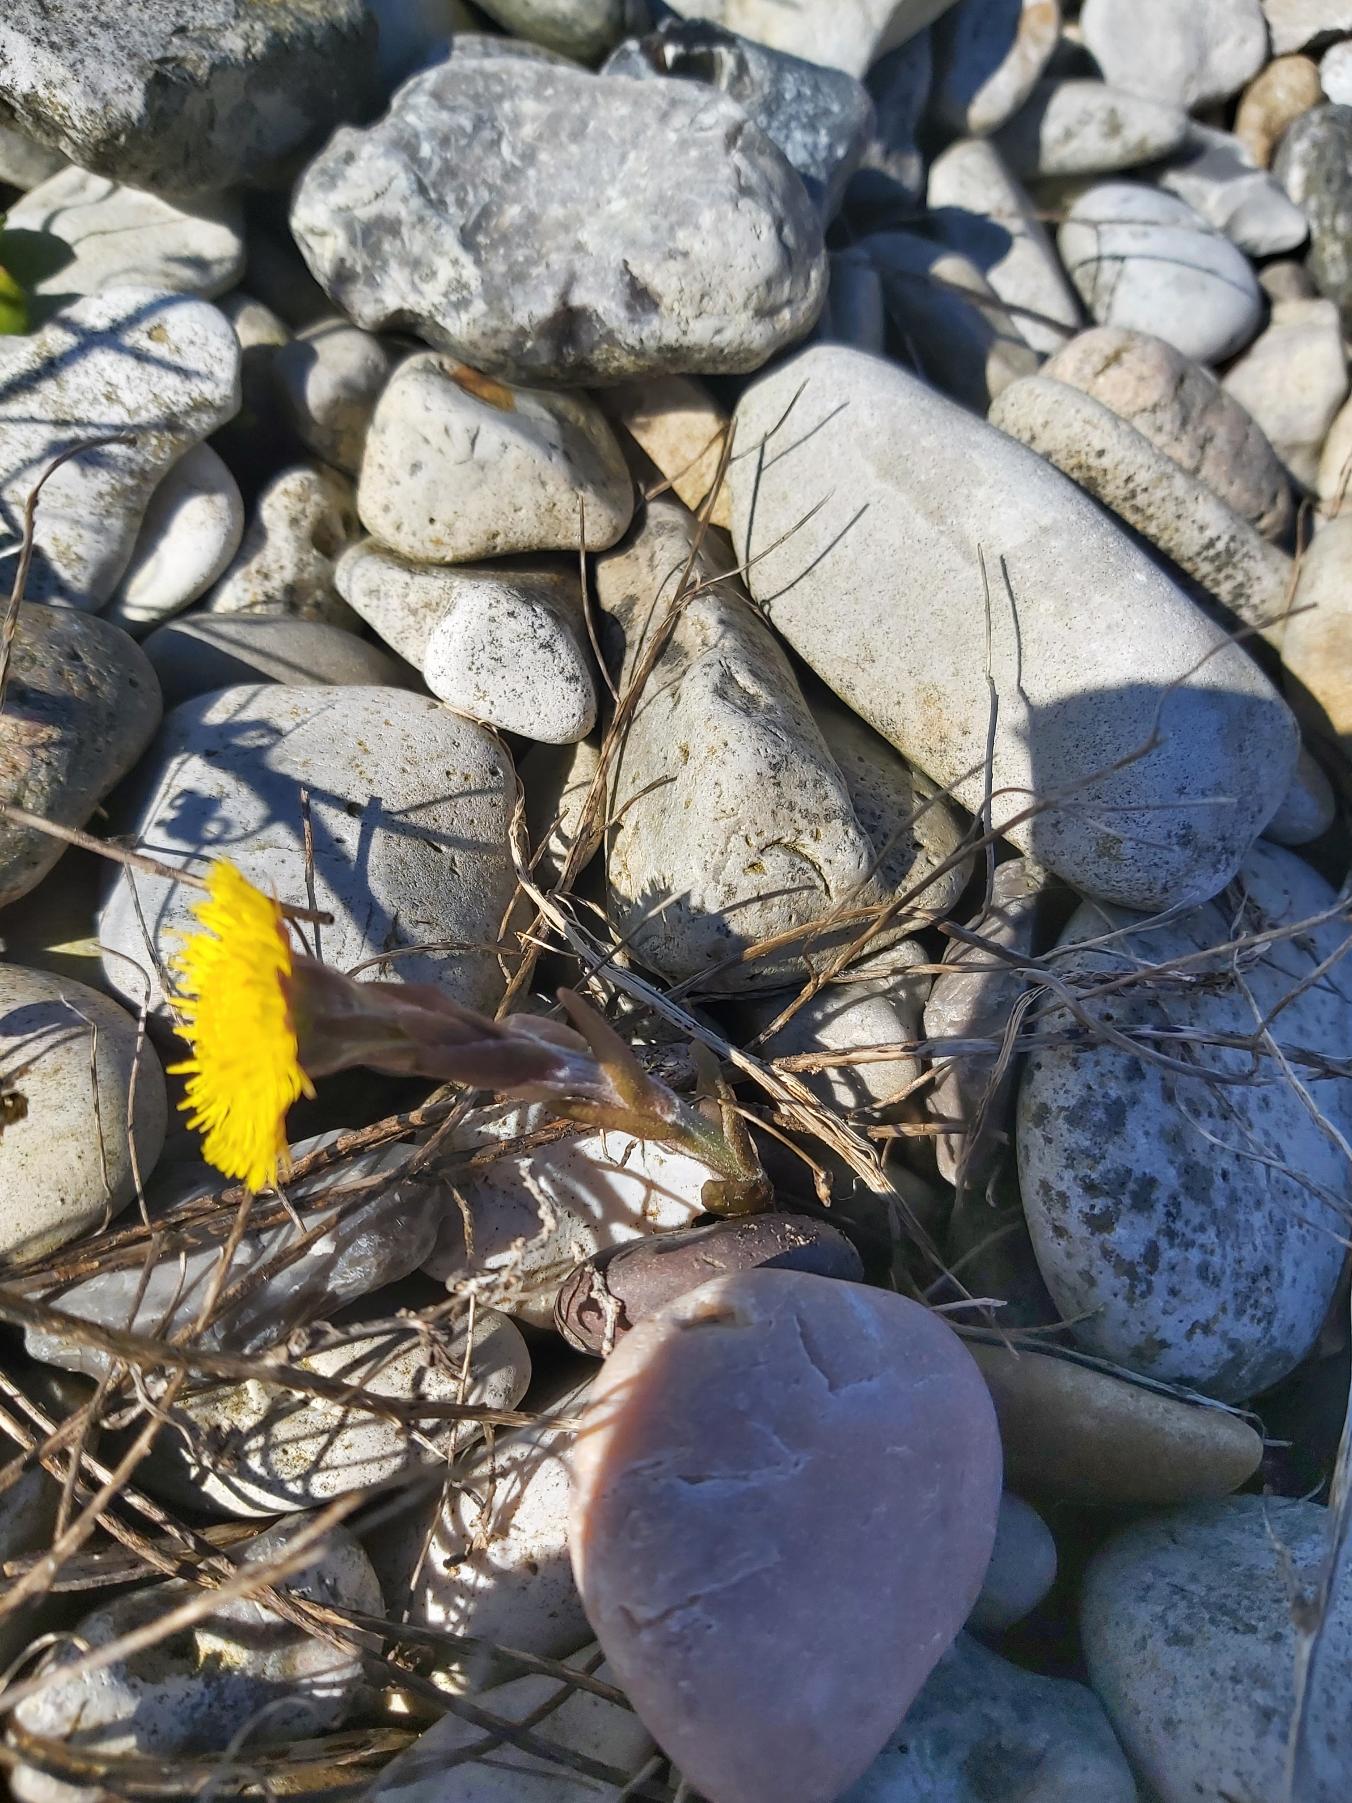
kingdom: Plantae
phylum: Tracheophyta
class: Magnoliopsida
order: Asterales
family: Asteraceae
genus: Tussilago
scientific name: Tussilago farfara
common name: Følfod
